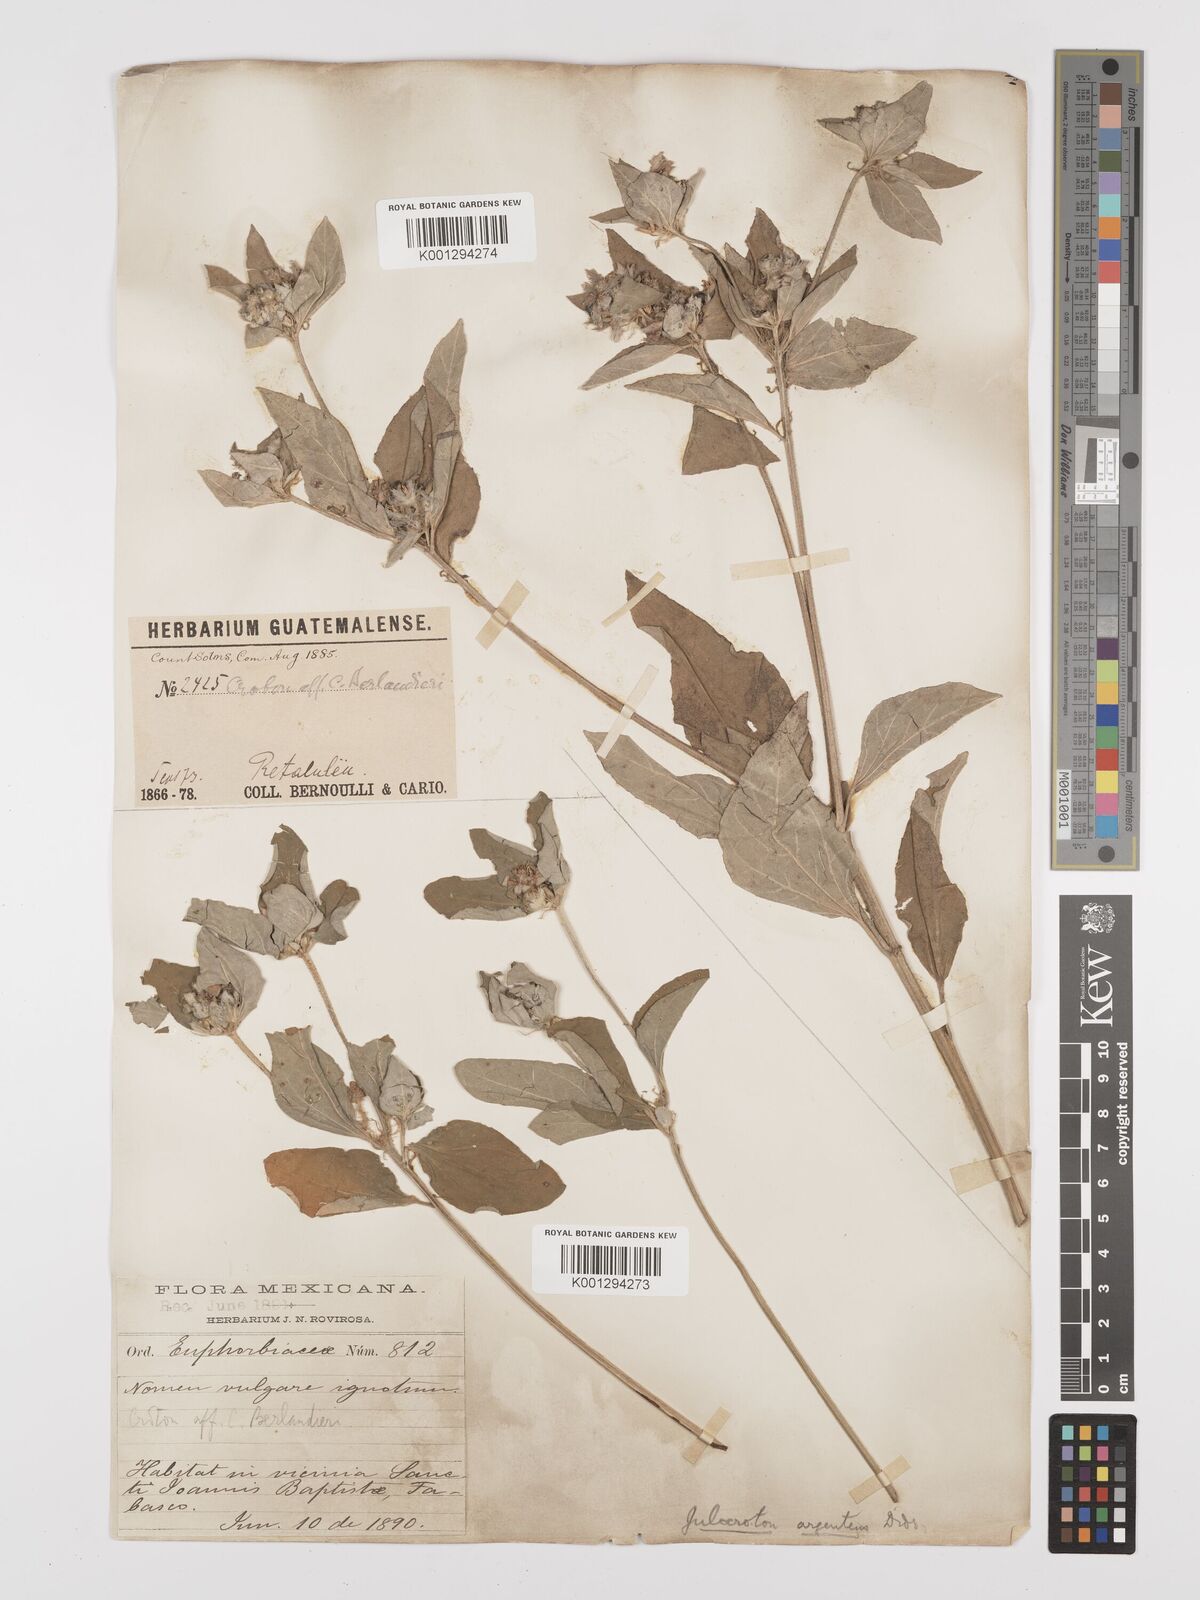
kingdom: Plantae
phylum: Tracheophyta
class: Magnoliopsida
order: Malpighiales
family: Euphorbiaceae
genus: Croton
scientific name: Croton argenteus
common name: Silver july croton
